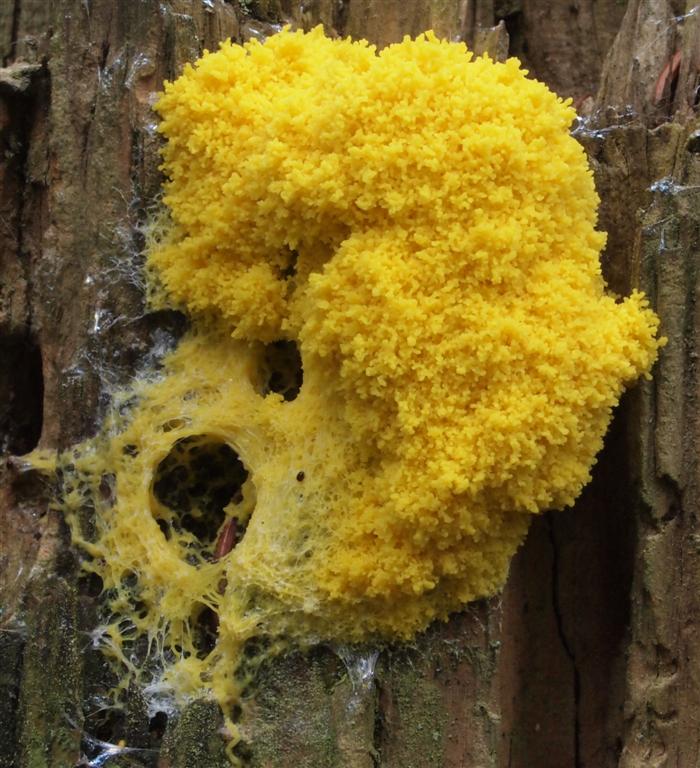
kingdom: Protozoa
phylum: Mycetozoa
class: Myxomycetes
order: Physarales
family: Physaraceae
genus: Fuligo
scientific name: Fuligo septica
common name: gul troldsmør
